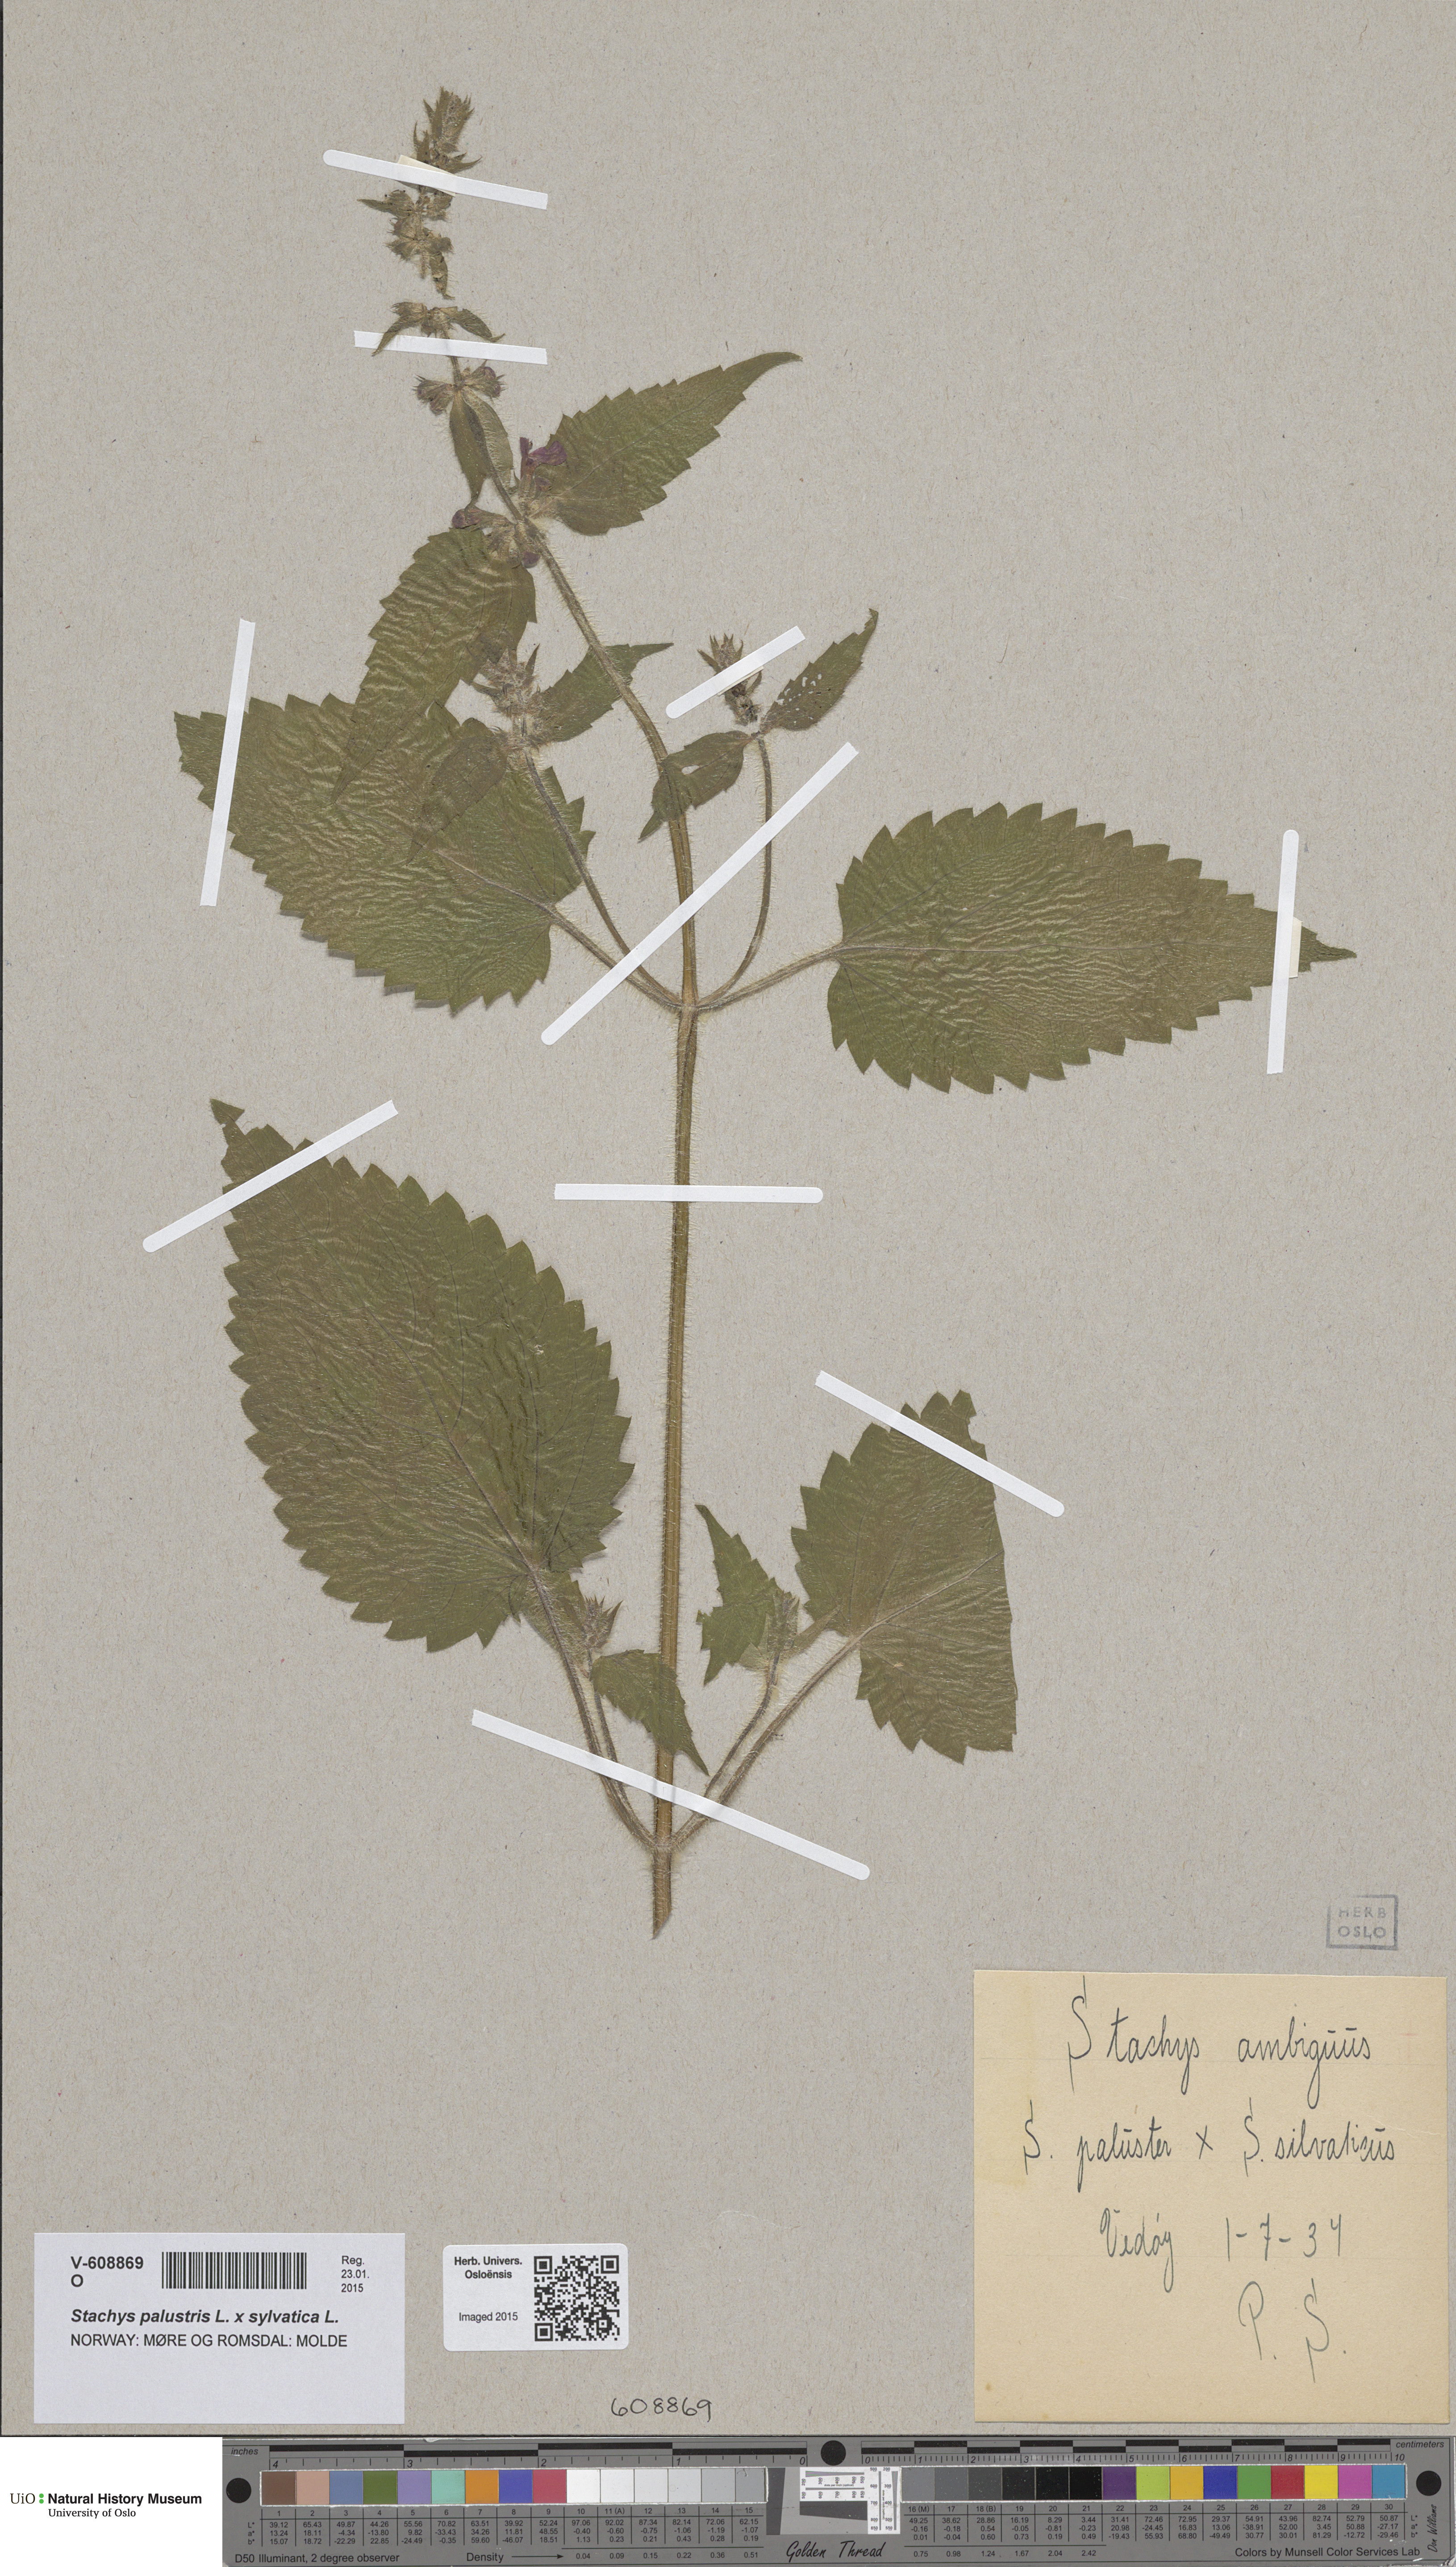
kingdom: Plantae
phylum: Tracheophyta
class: Magnoliopsida
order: Lamiales
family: Lamiaceae
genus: Stachys
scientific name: Stachys sylvatica
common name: Hedge woundwort
